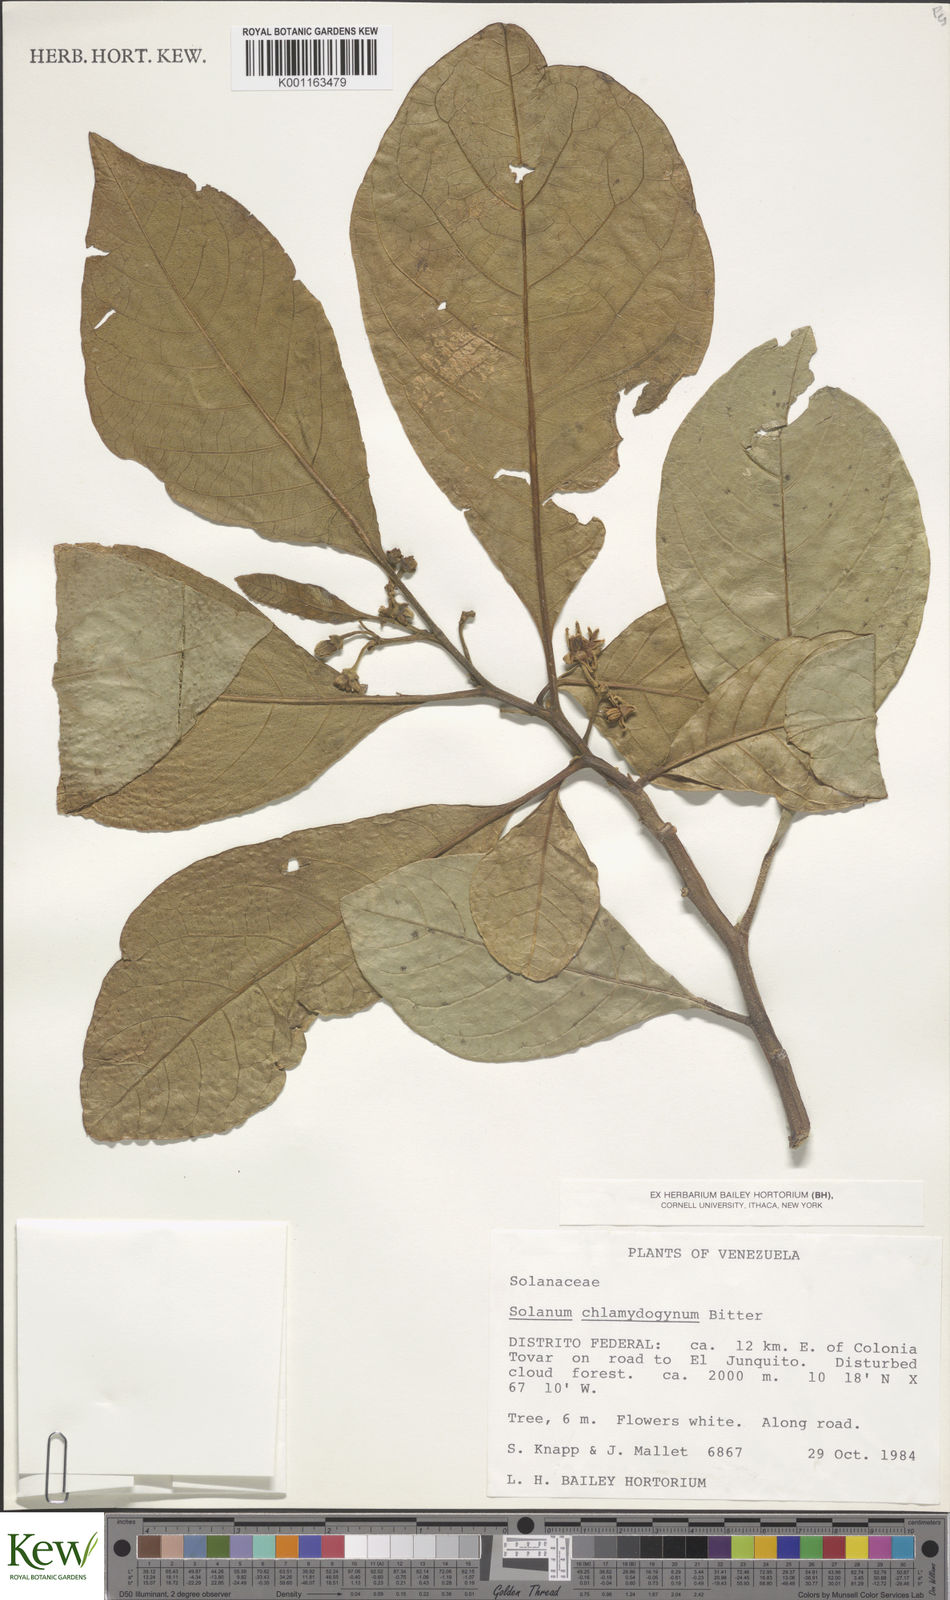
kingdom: Plantae
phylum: Tracheophyta
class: Magnoliopsida
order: Solanales
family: Solanaceae
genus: Solanum
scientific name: Solanum chlamydogynum
